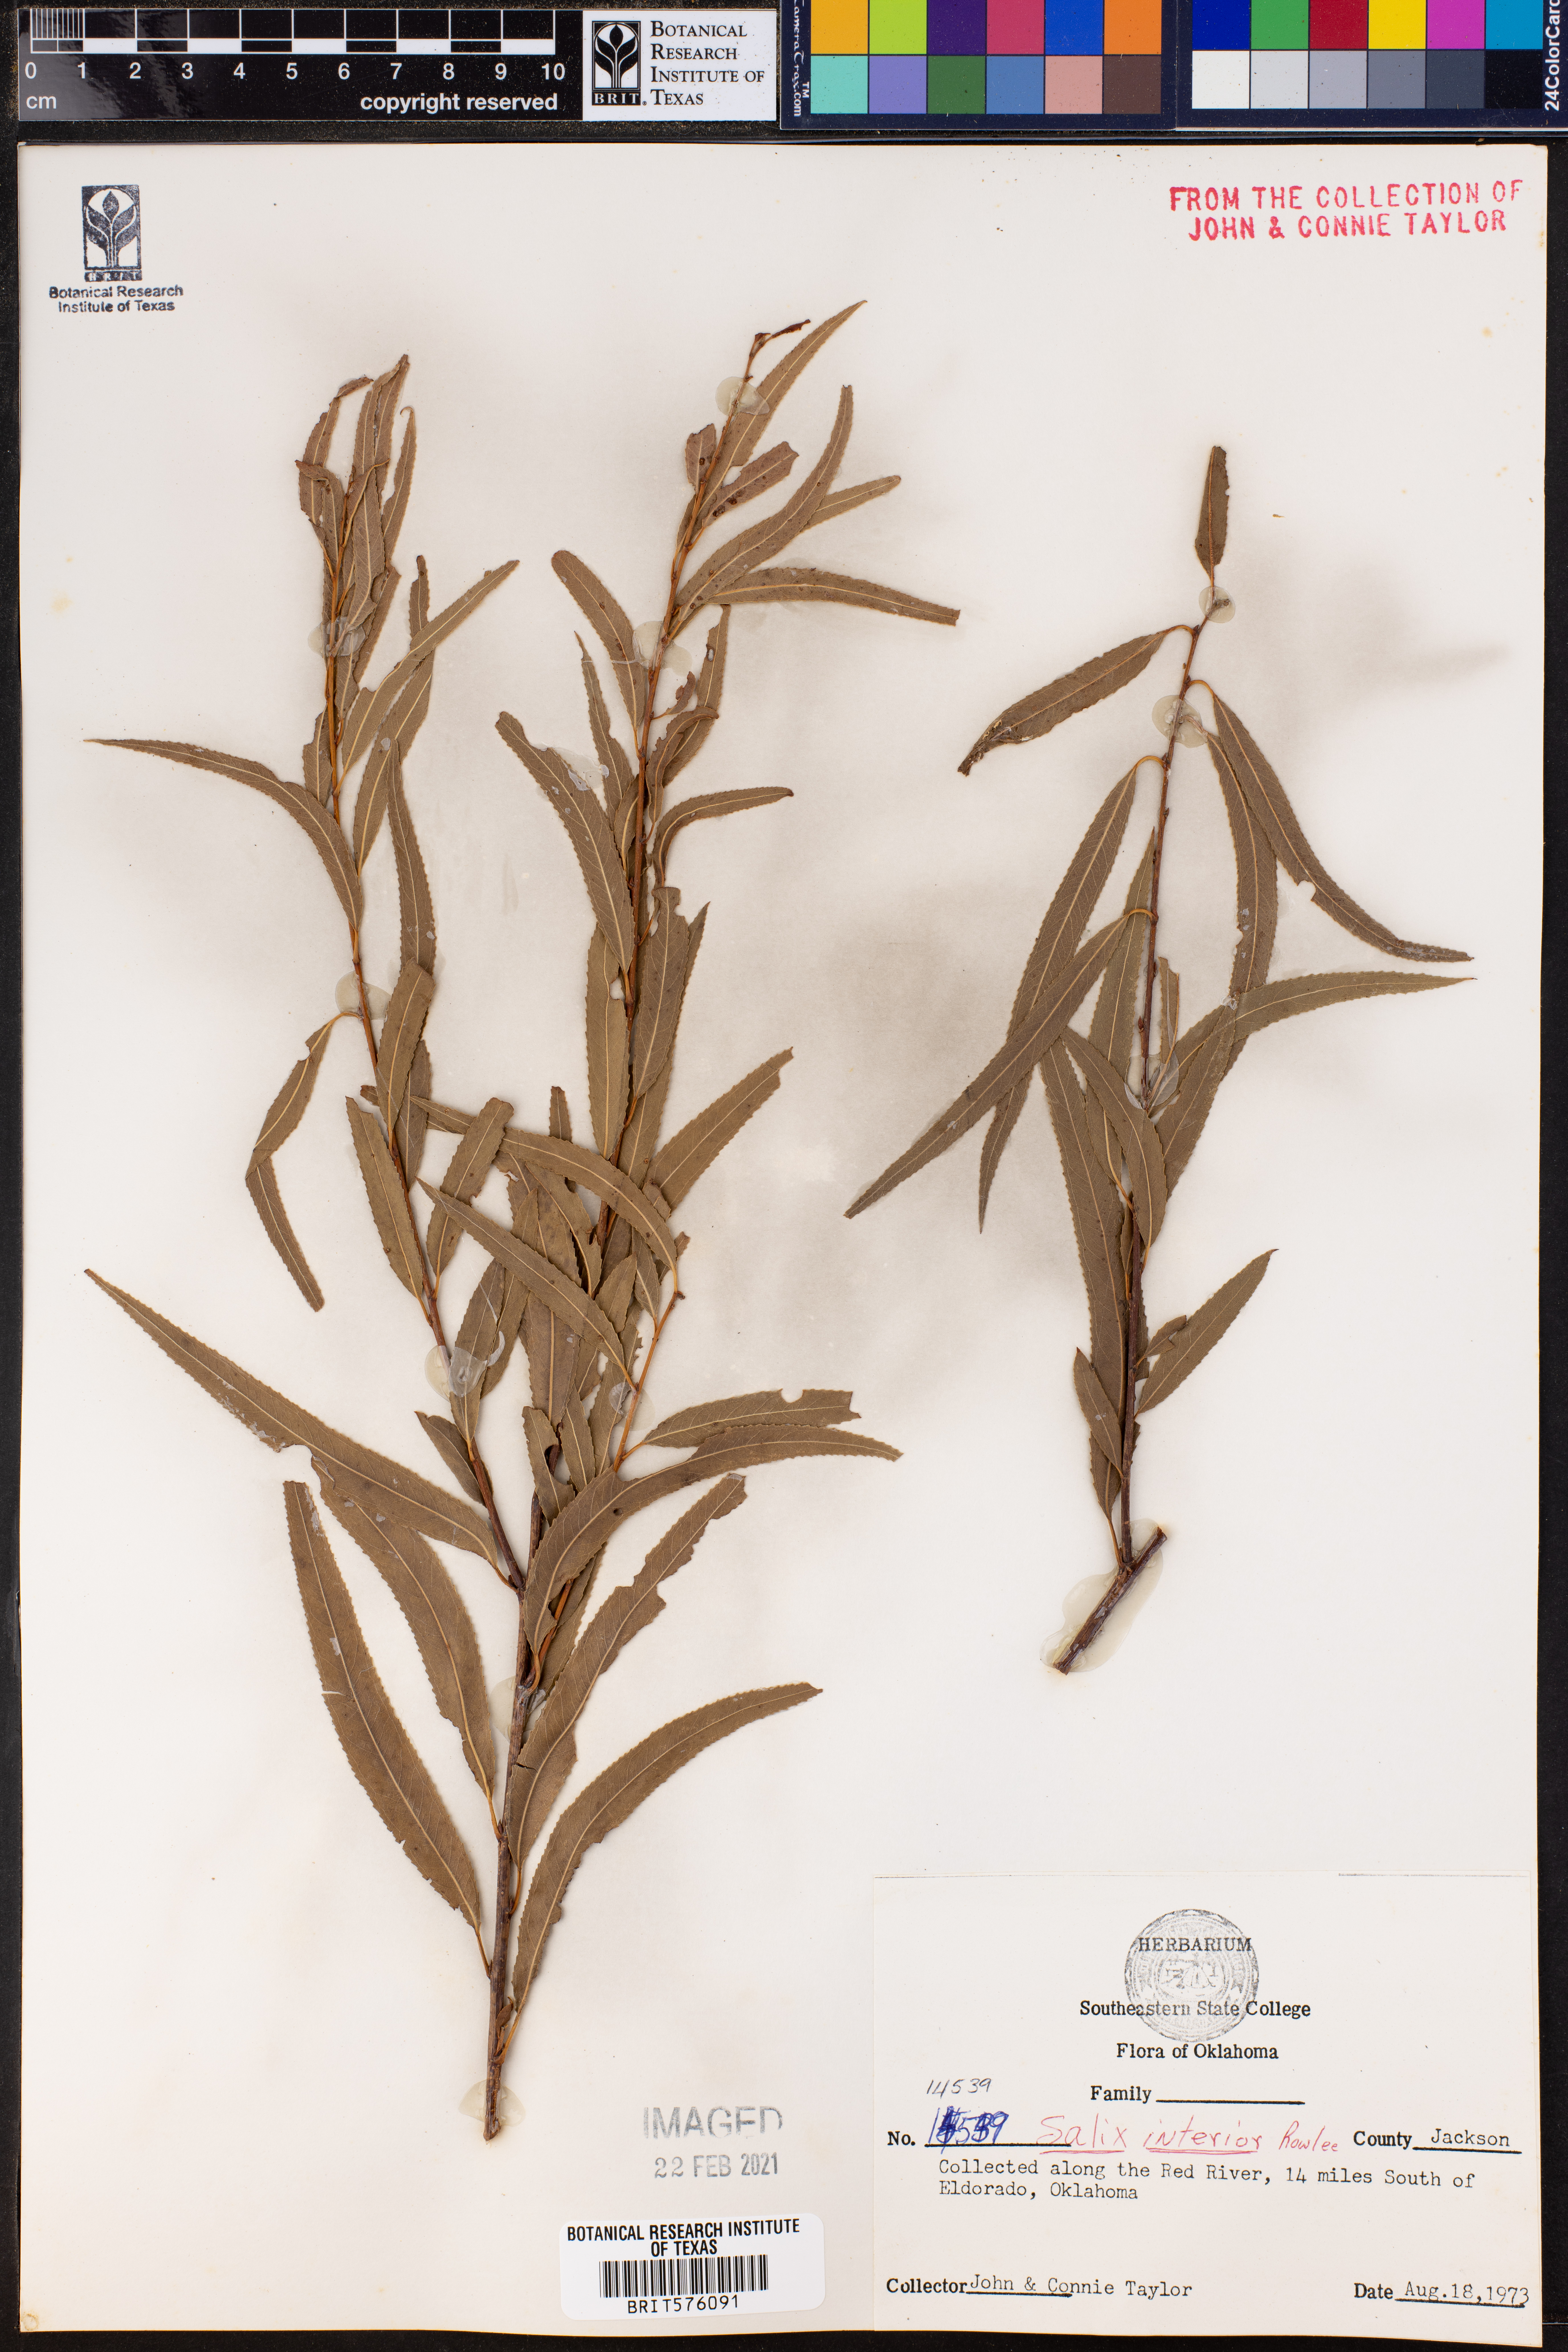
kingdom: Plantae
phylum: Tracheophyta
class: Magnoliopsida
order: Malpighiales
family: Salicaceae
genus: Salix
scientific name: Salix interior
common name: Sandbar willow
